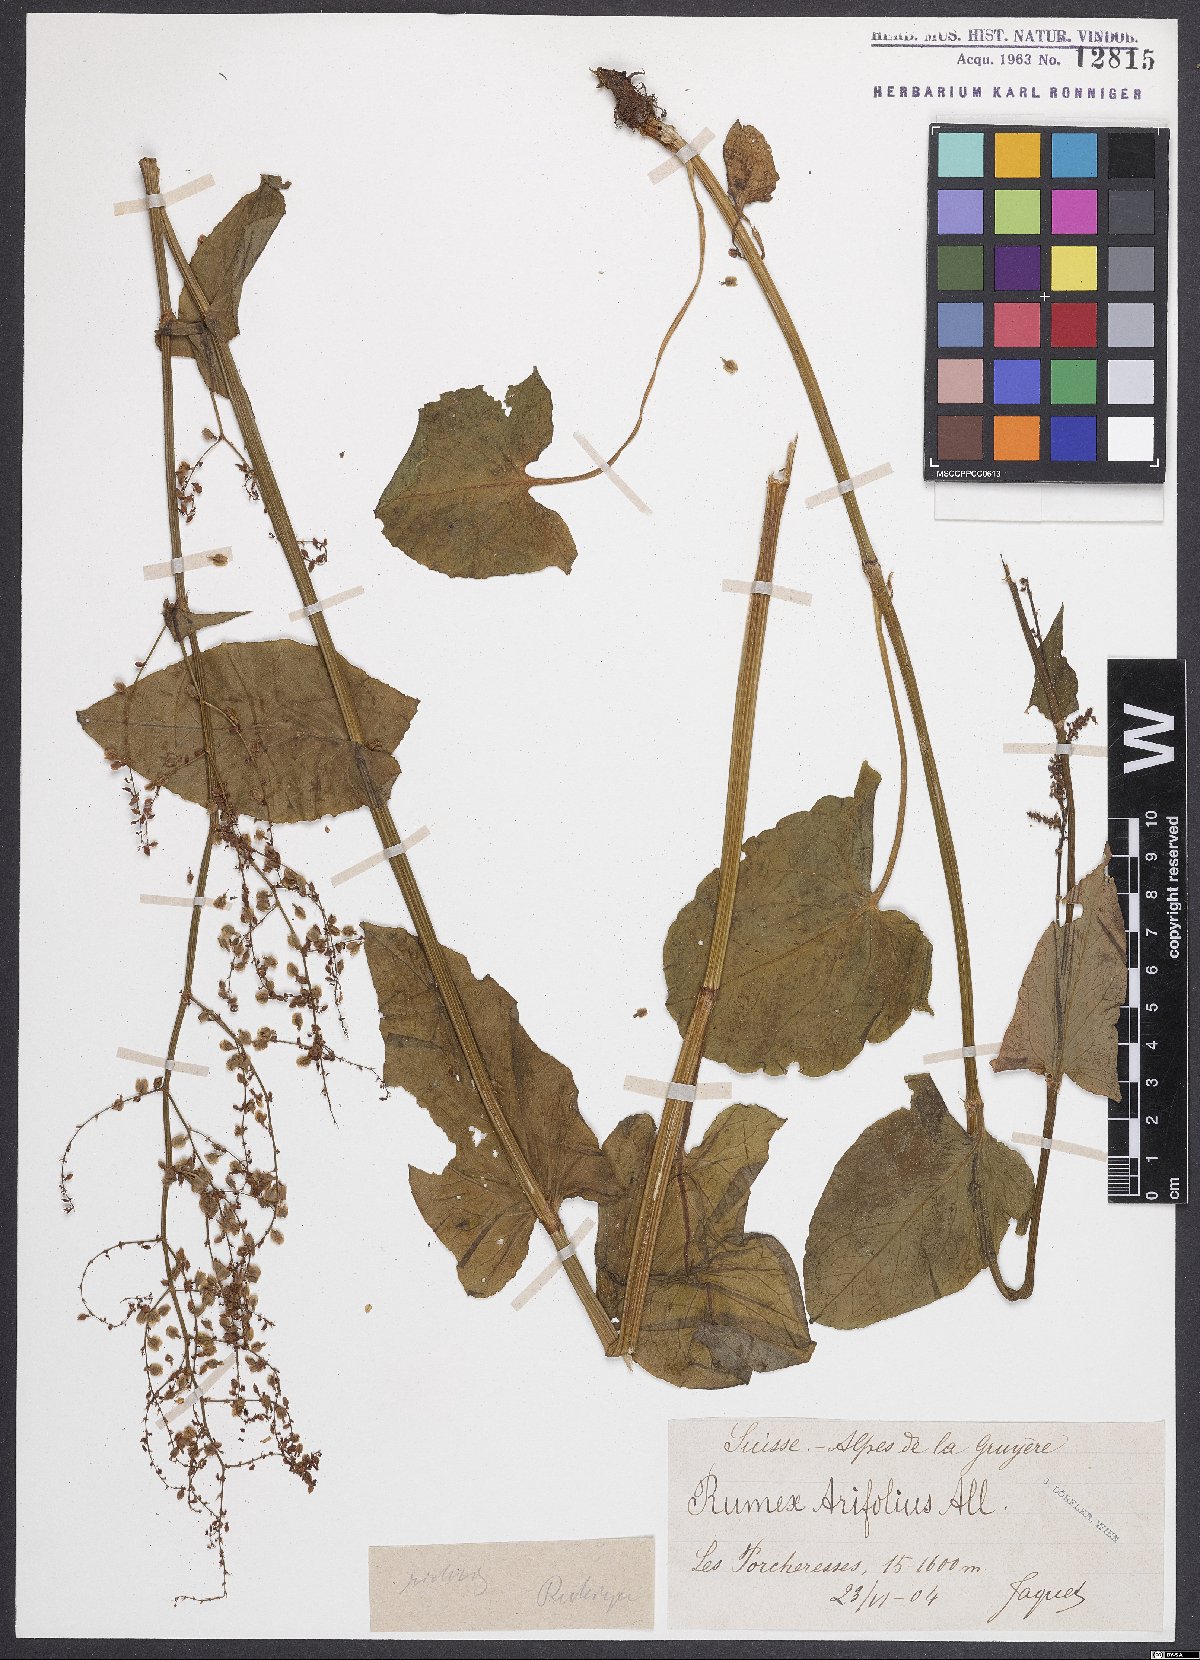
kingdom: Plantae
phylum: Tracheophyta
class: Magnoliopsida
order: Caryophyllales
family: Polygonaceae
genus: Rumex
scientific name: Rumex arifolius
